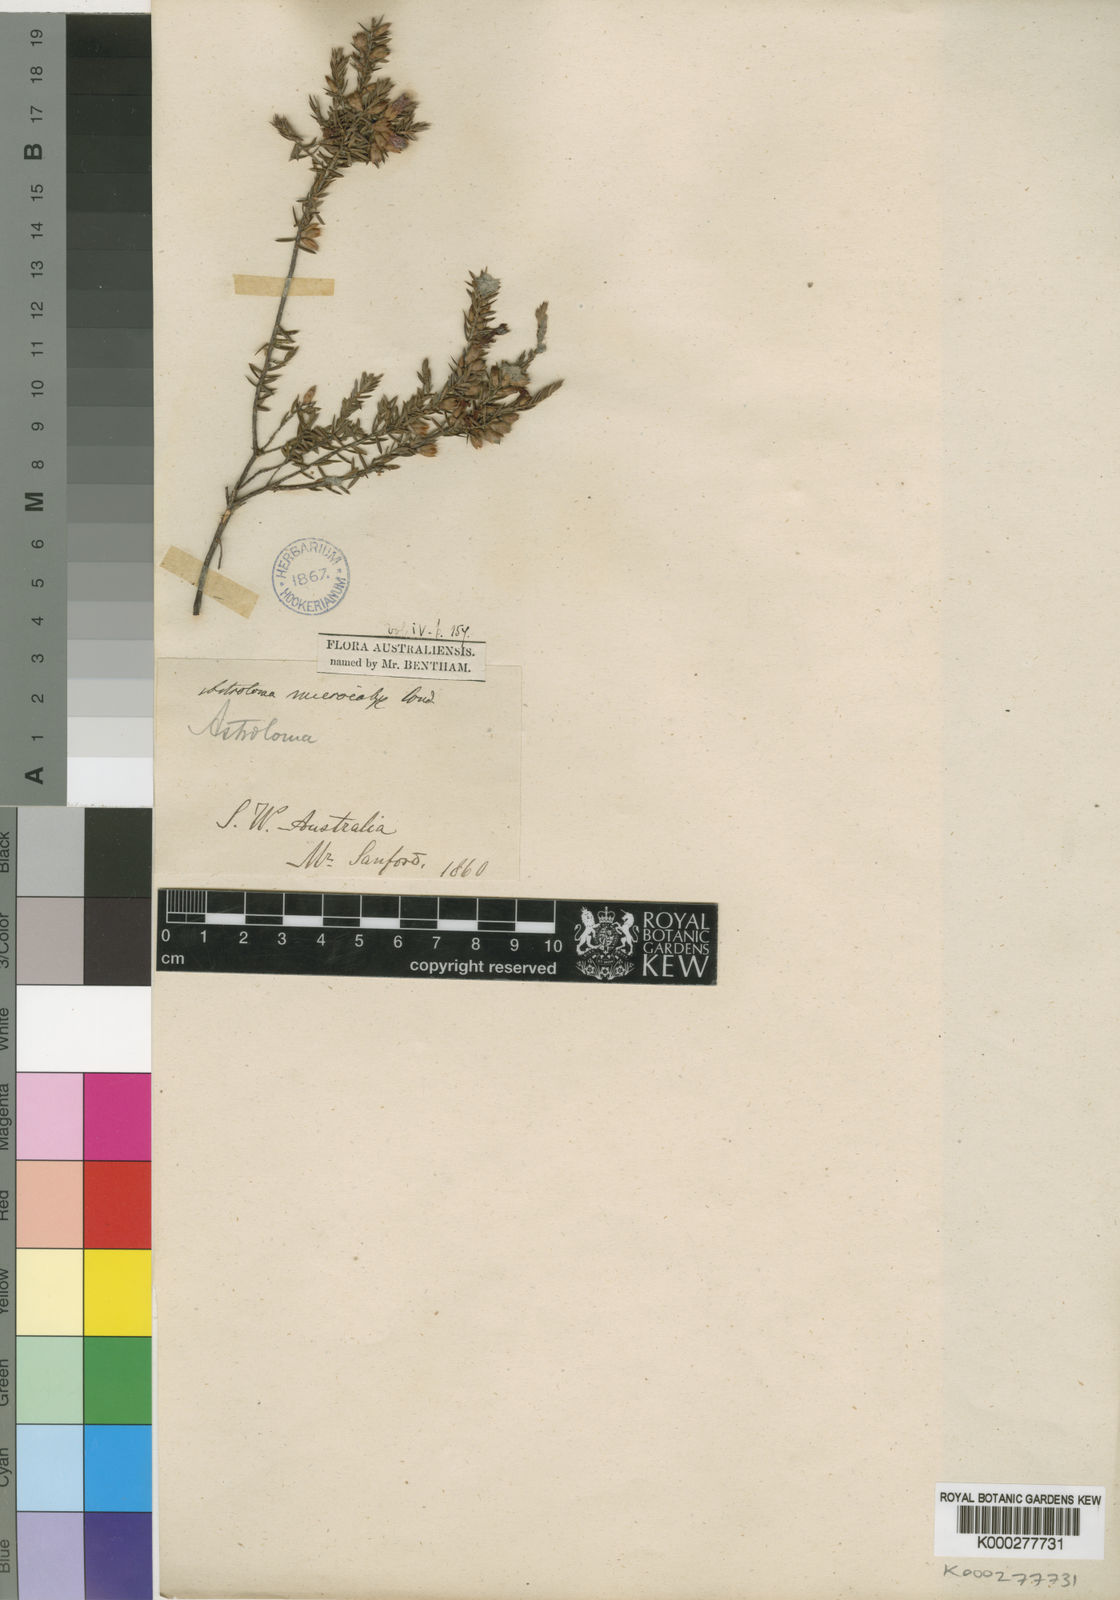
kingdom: Plantae
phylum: Tracheophyta
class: Magnoliopsida
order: Ericales
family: Ericaceae
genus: Styphelia
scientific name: Styphelia microcalyx
